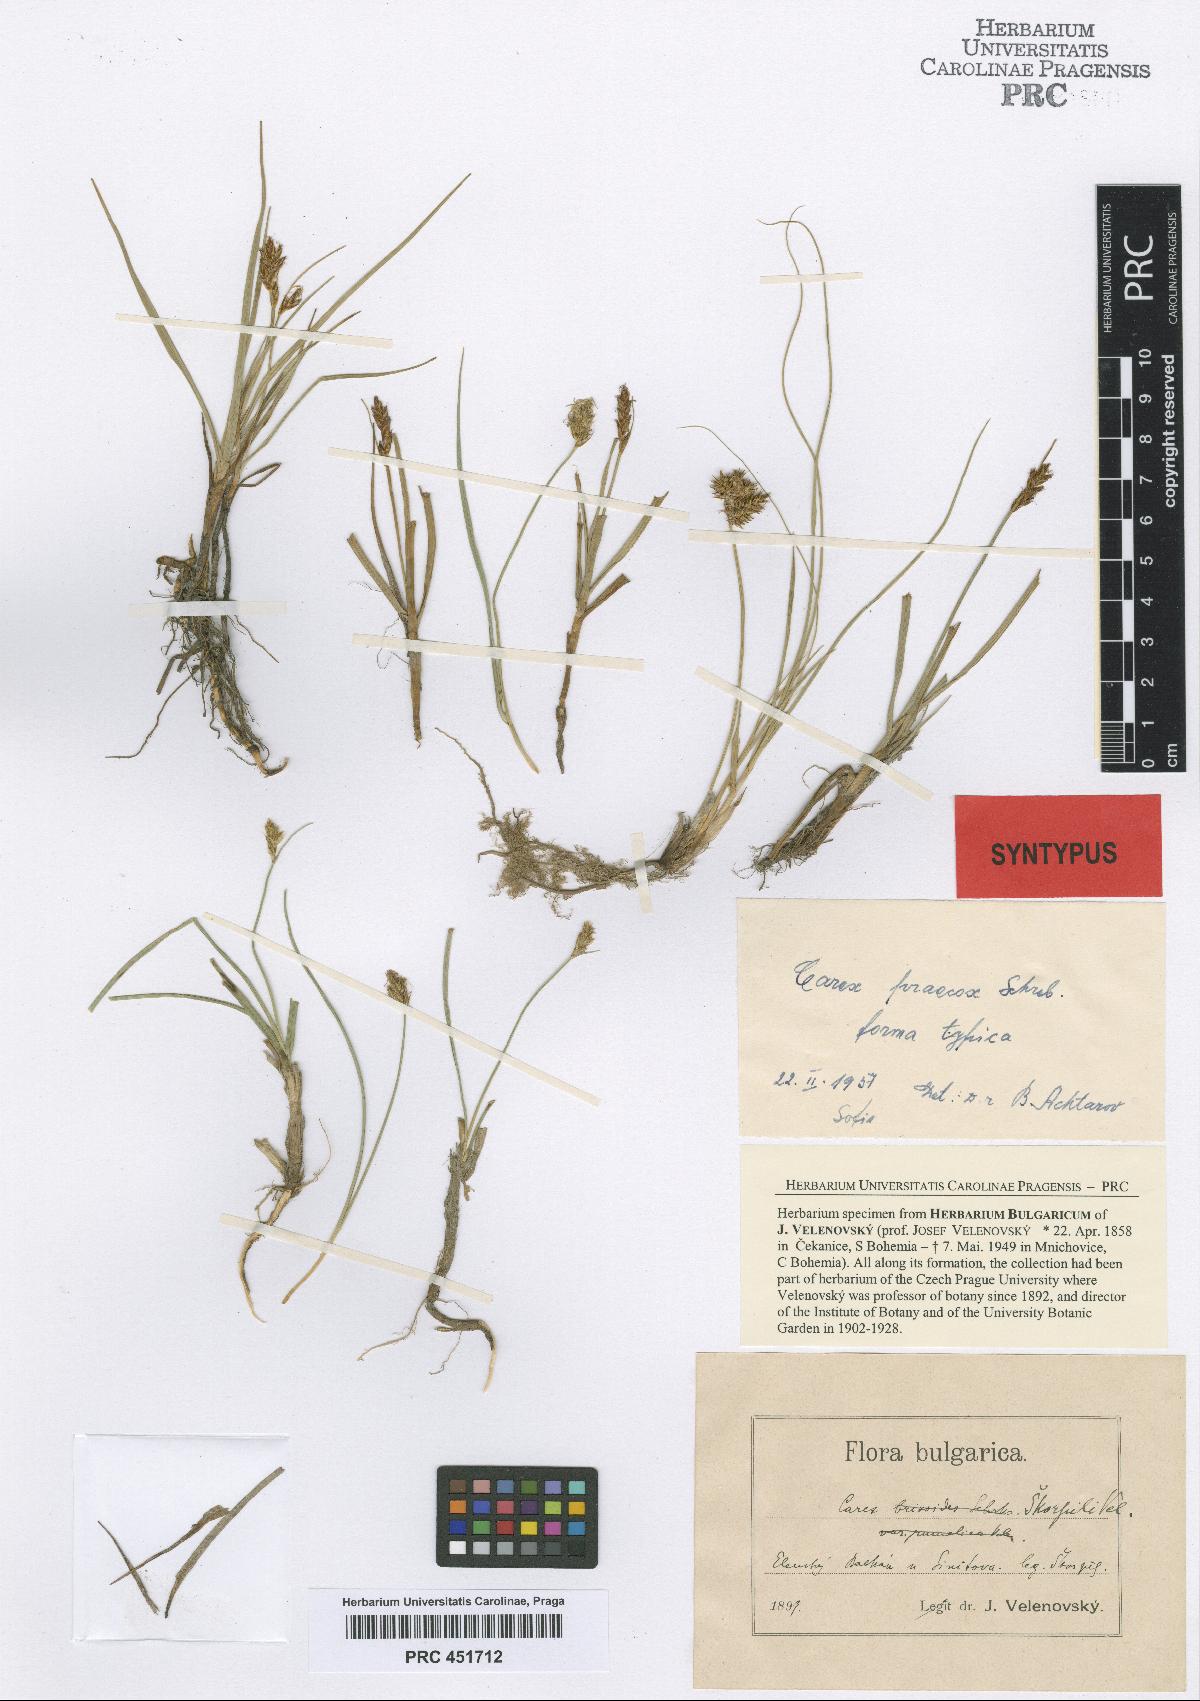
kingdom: Plantae
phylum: Tracheophyta
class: Liliopsida
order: Poales
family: Cyperaceae
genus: Carex
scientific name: Carex skorpili
